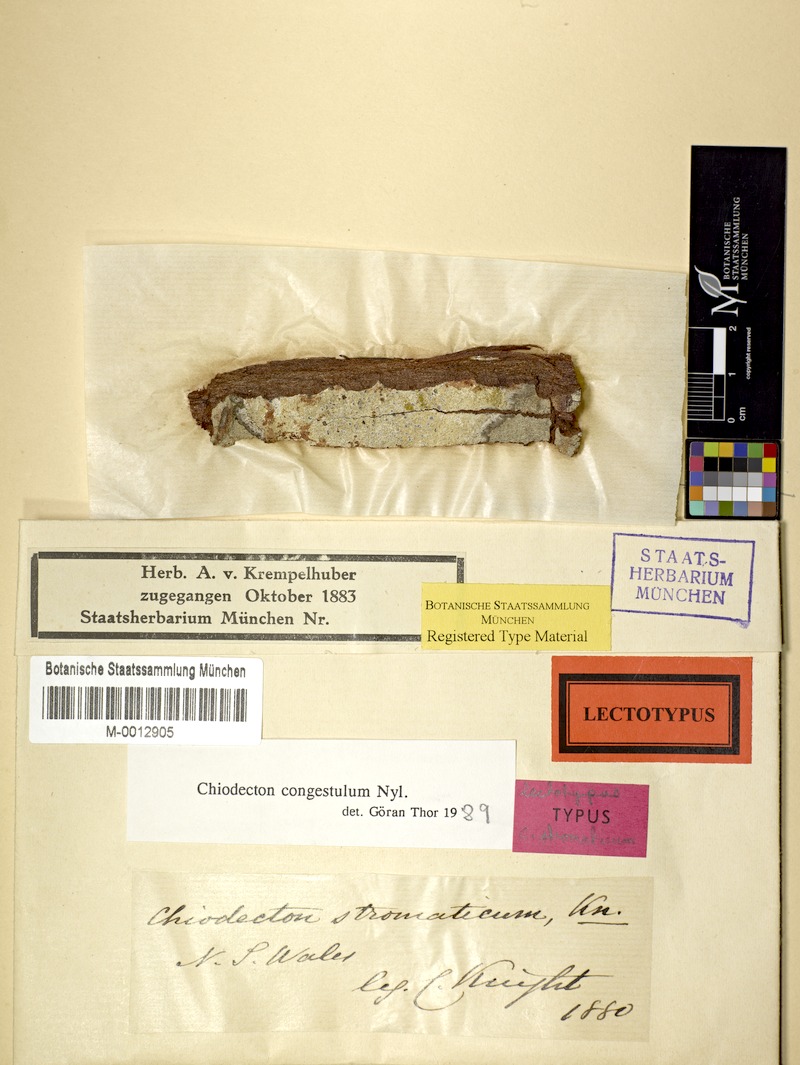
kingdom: Fungi
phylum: Ascomycota
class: Arthoniomycetes
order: Arthoniales
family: Roccellaceae
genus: Chiodecton
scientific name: Chiodecton congestulum
